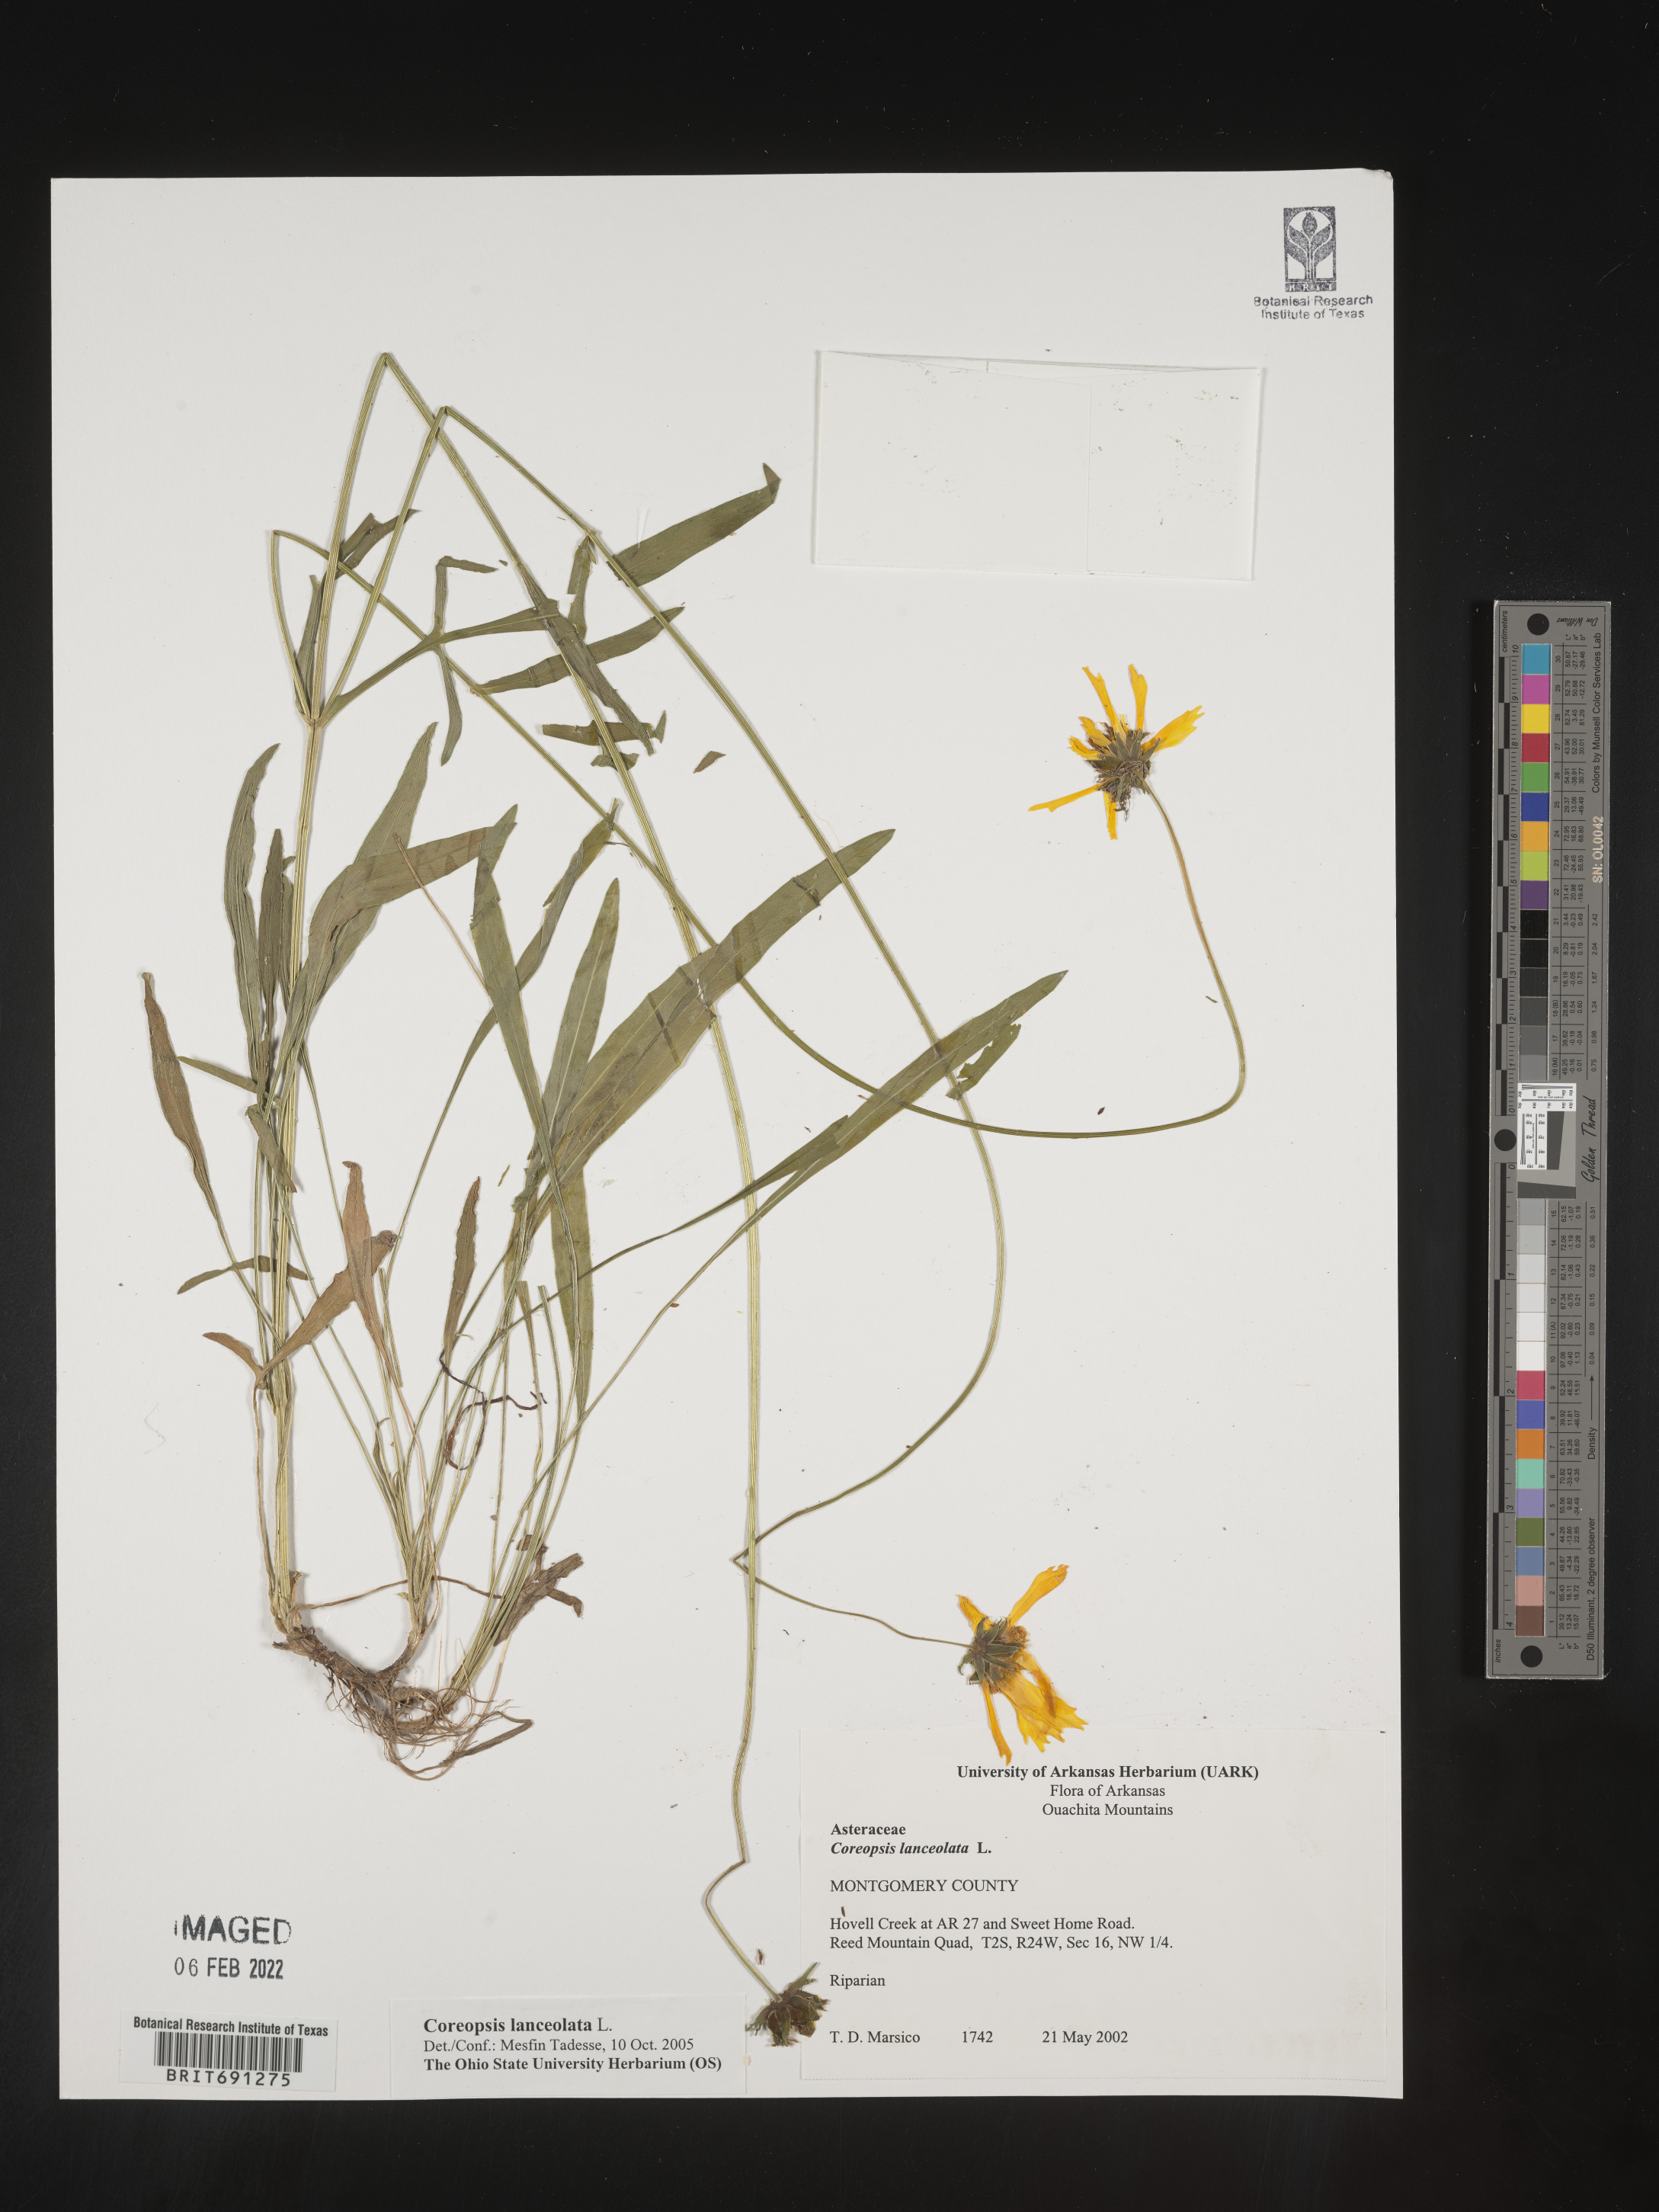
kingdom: Plantae
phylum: Tracheophyta
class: Magnoliopsida
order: Asterales
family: Asteraceae
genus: Coreopsis
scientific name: Coreopsis lanceolata
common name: Garden coreopsis
